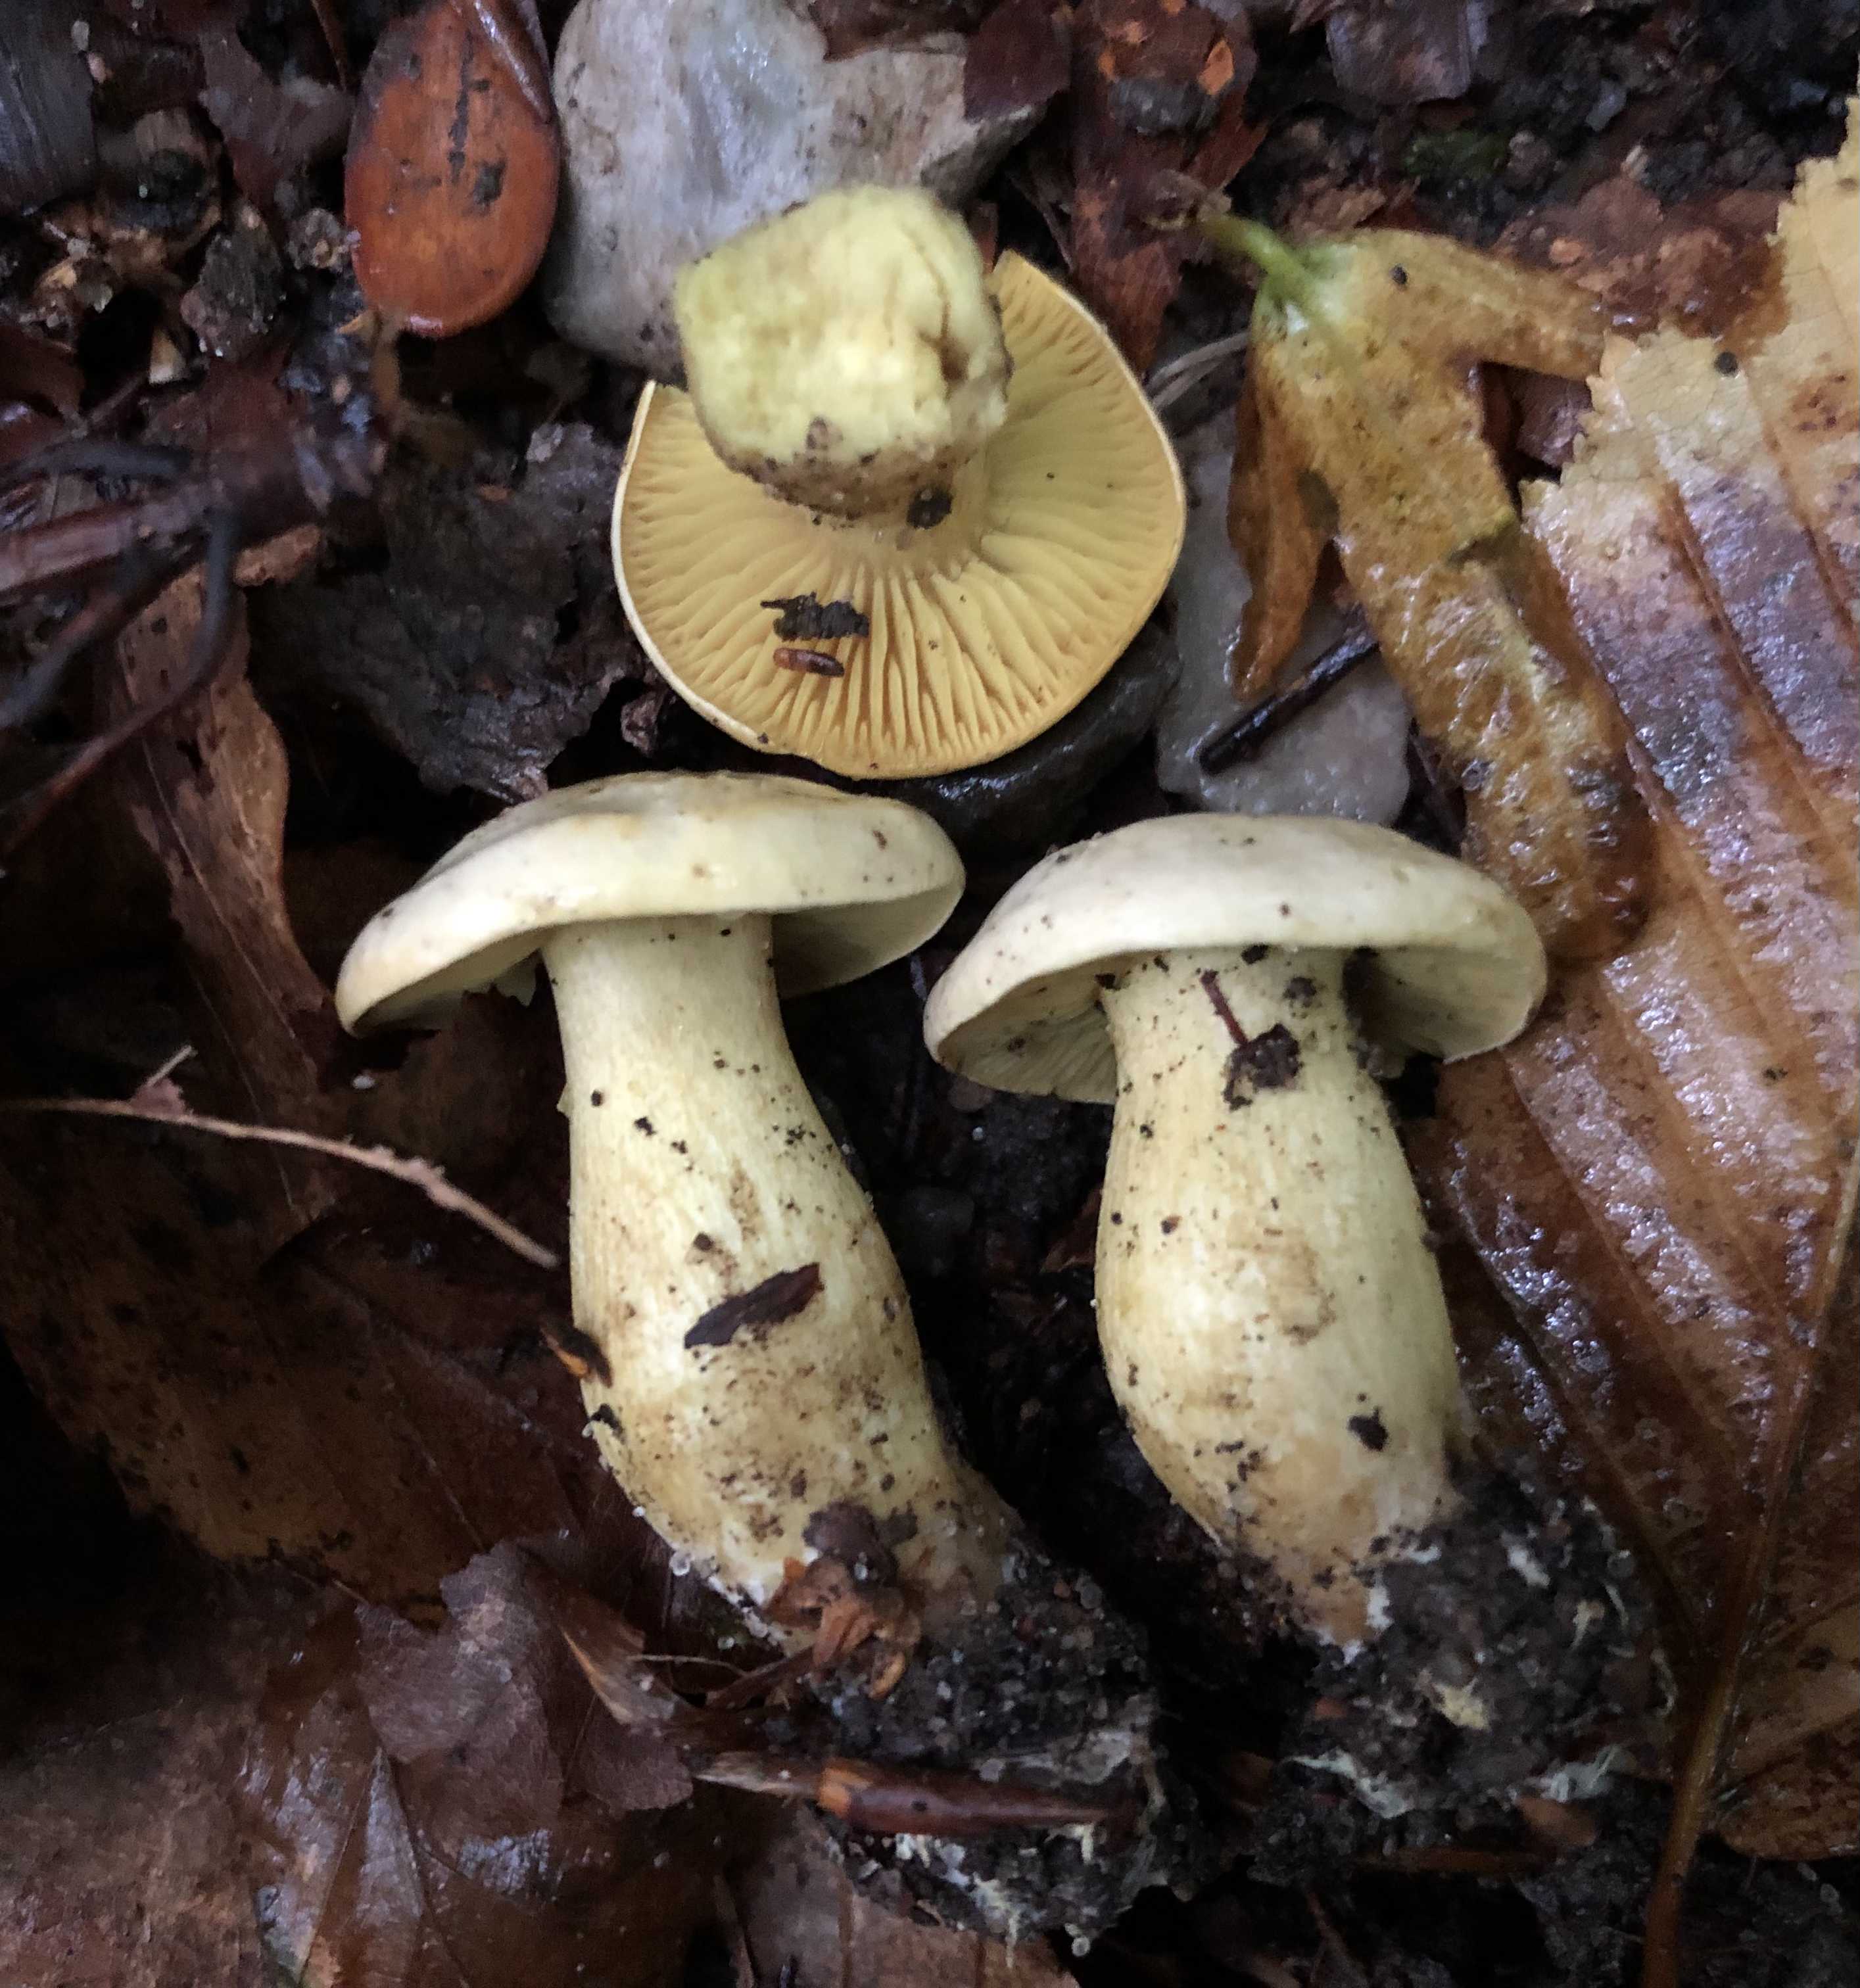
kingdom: Fungi
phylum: Basidiomycota
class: Agaricomycetes
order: Agaricales
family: Tricholomataceae
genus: Tricholoma
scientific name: Tricholoma sulphureum
